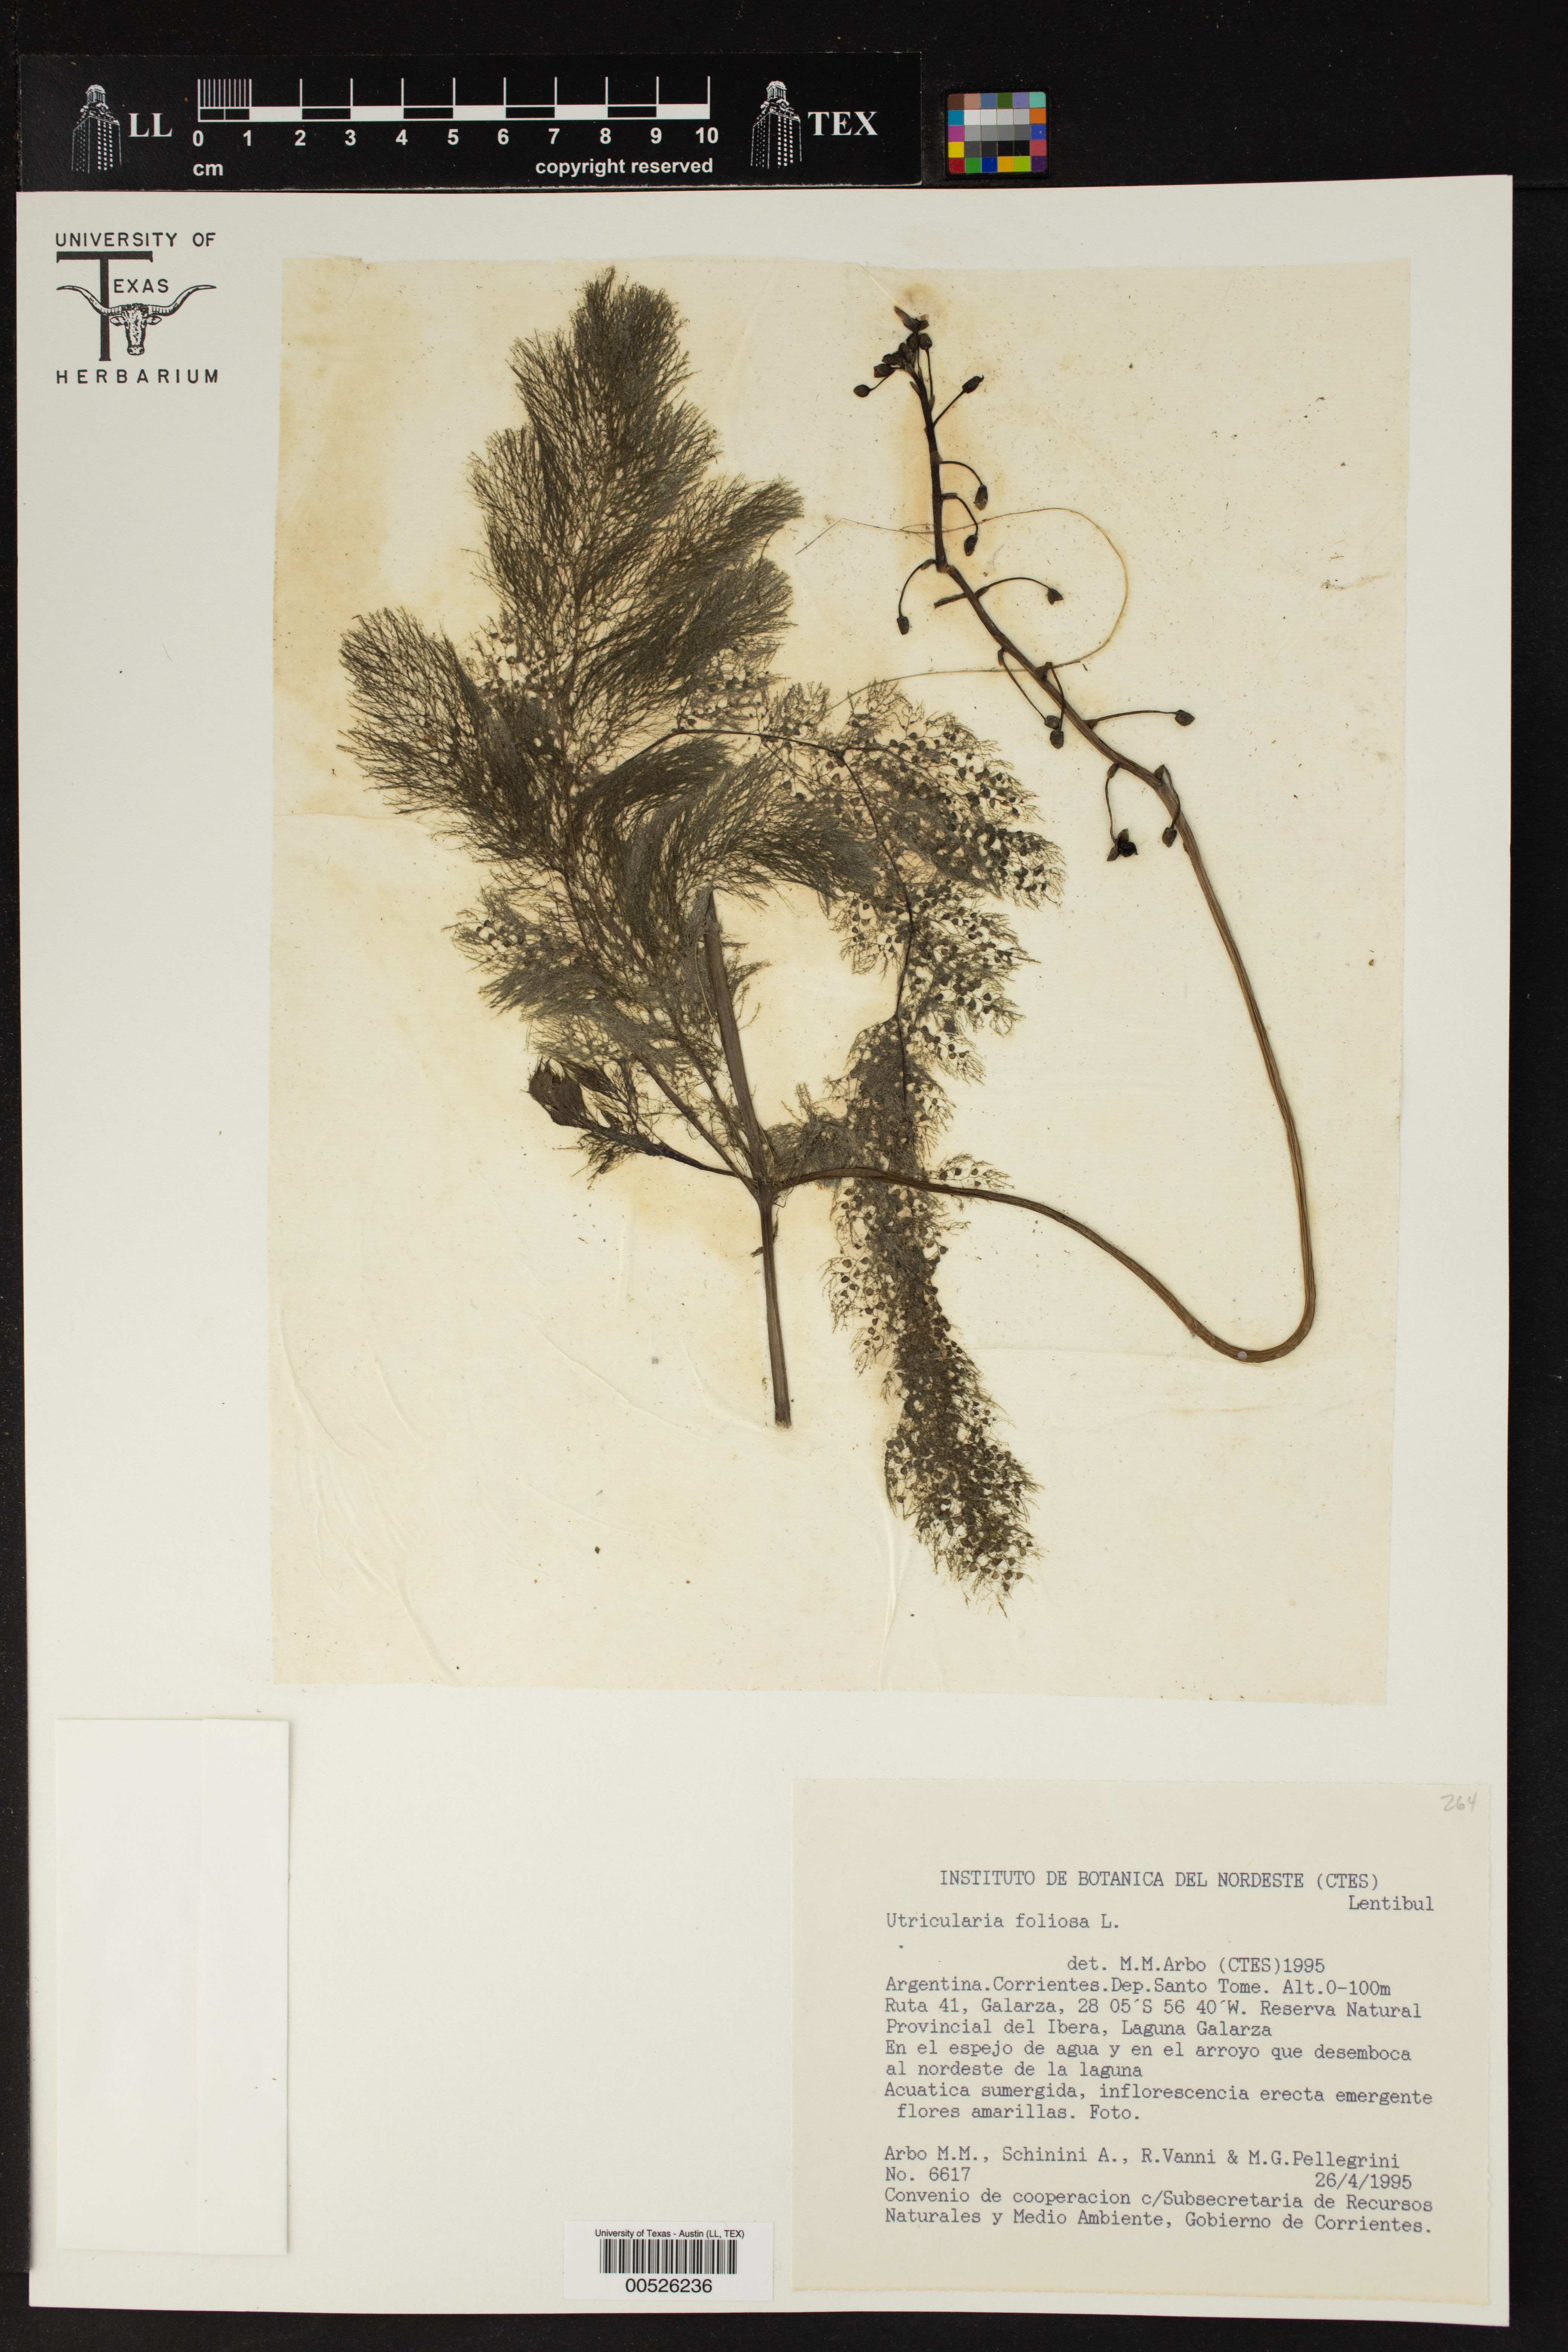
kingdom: Plantae
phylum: Tracheophyta
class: Magnoliopsida
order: Lamiales
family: Lentibulariaceae
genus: Utricularia
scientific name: Utricularia foliosa
